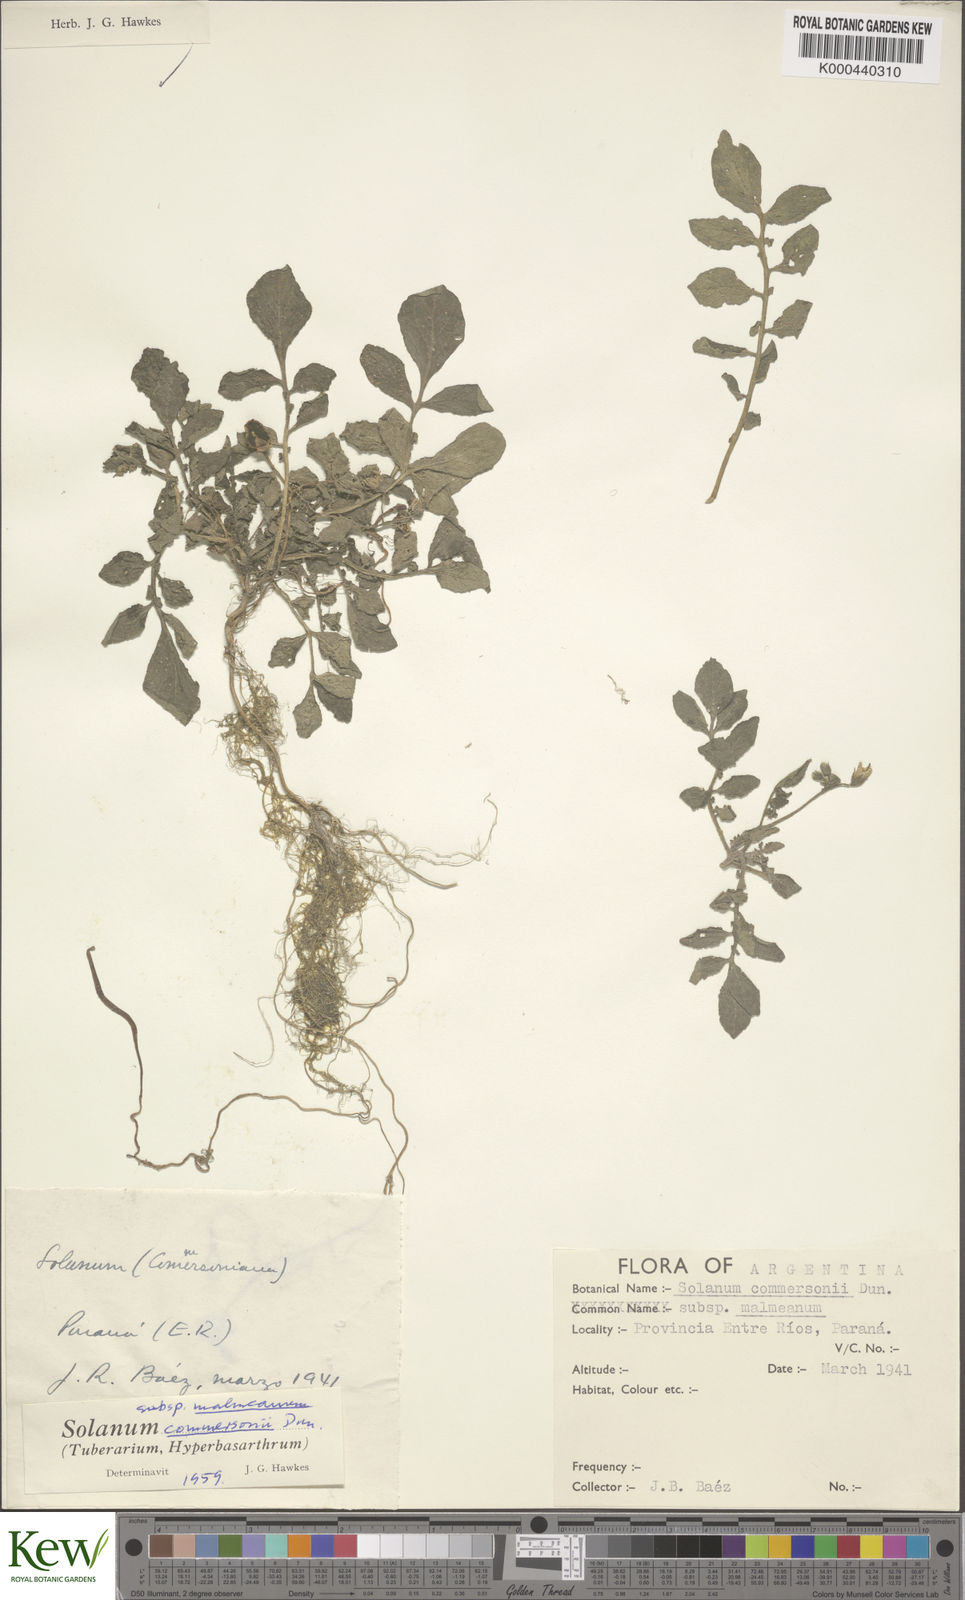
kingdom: Plantae
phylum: Tracheophyta
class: Magnoliopsida
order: Solanales
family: Solanaceae
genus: Solanum
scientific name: Solanum malmeanum
